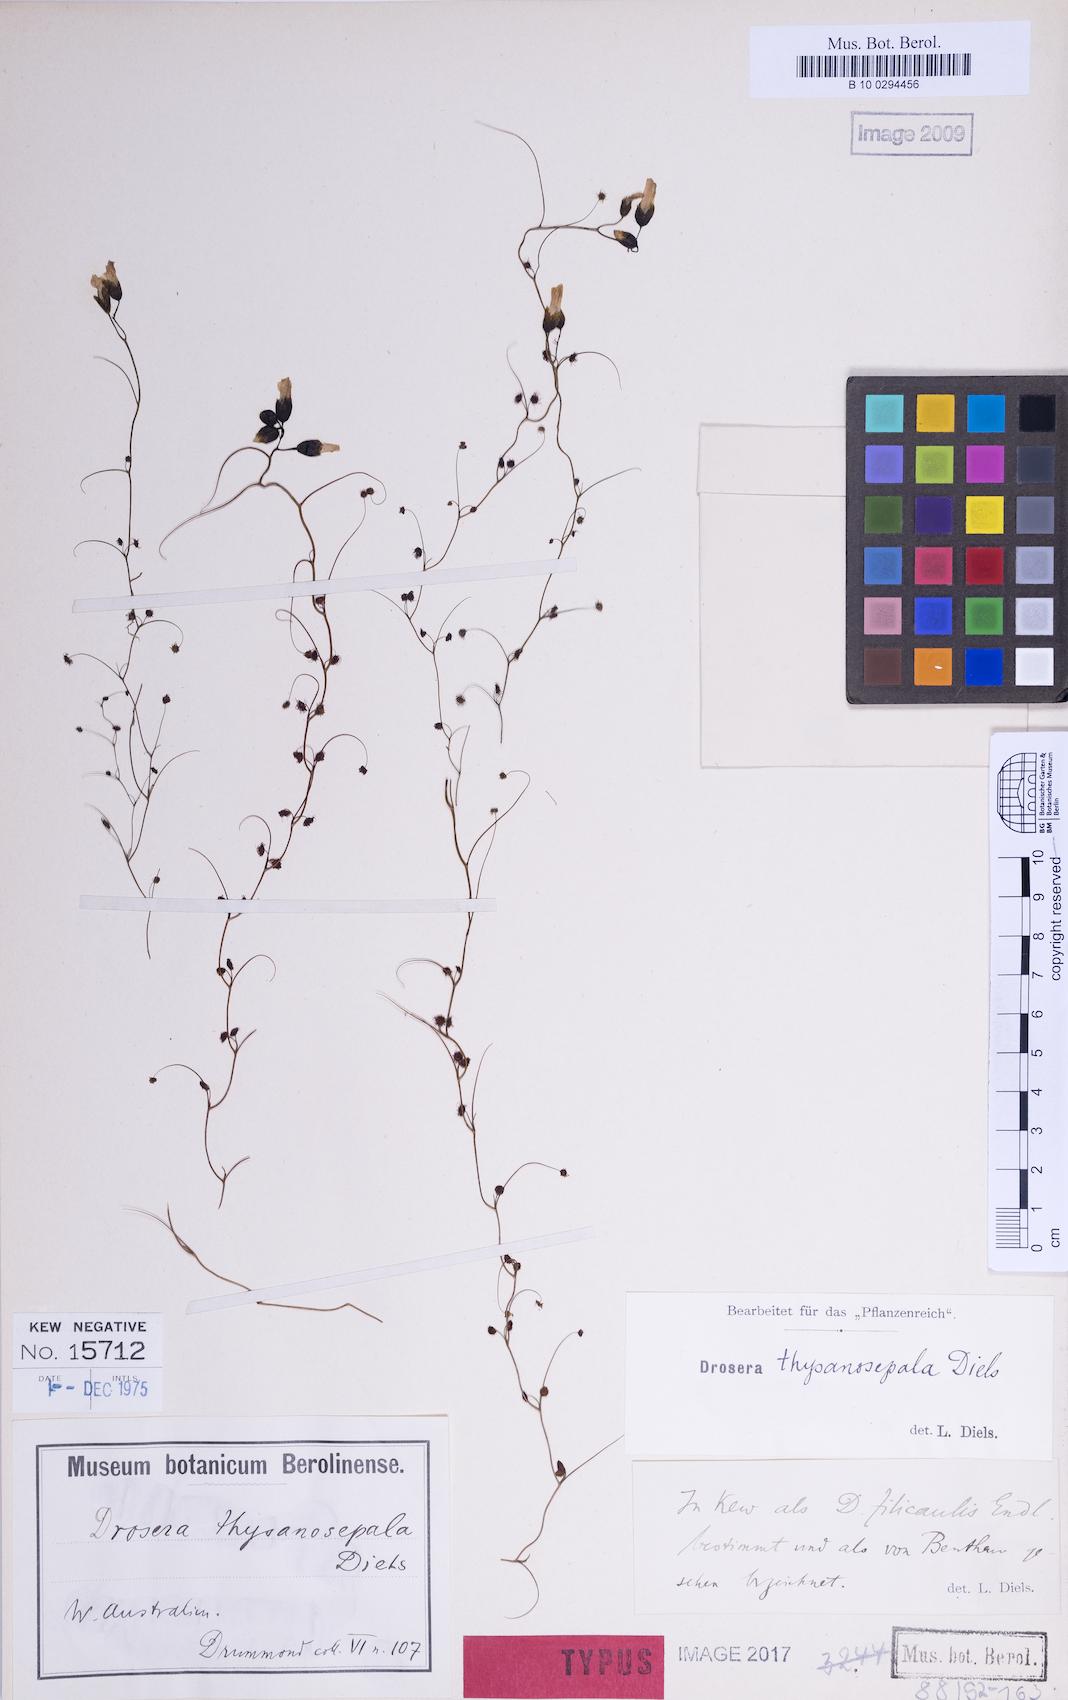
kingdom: Plantae
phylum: Tracheophyta
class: Magnoliopsida
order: Caryophyllales
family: Droseraceae
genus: Drosera
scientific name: Drosera menziesii
